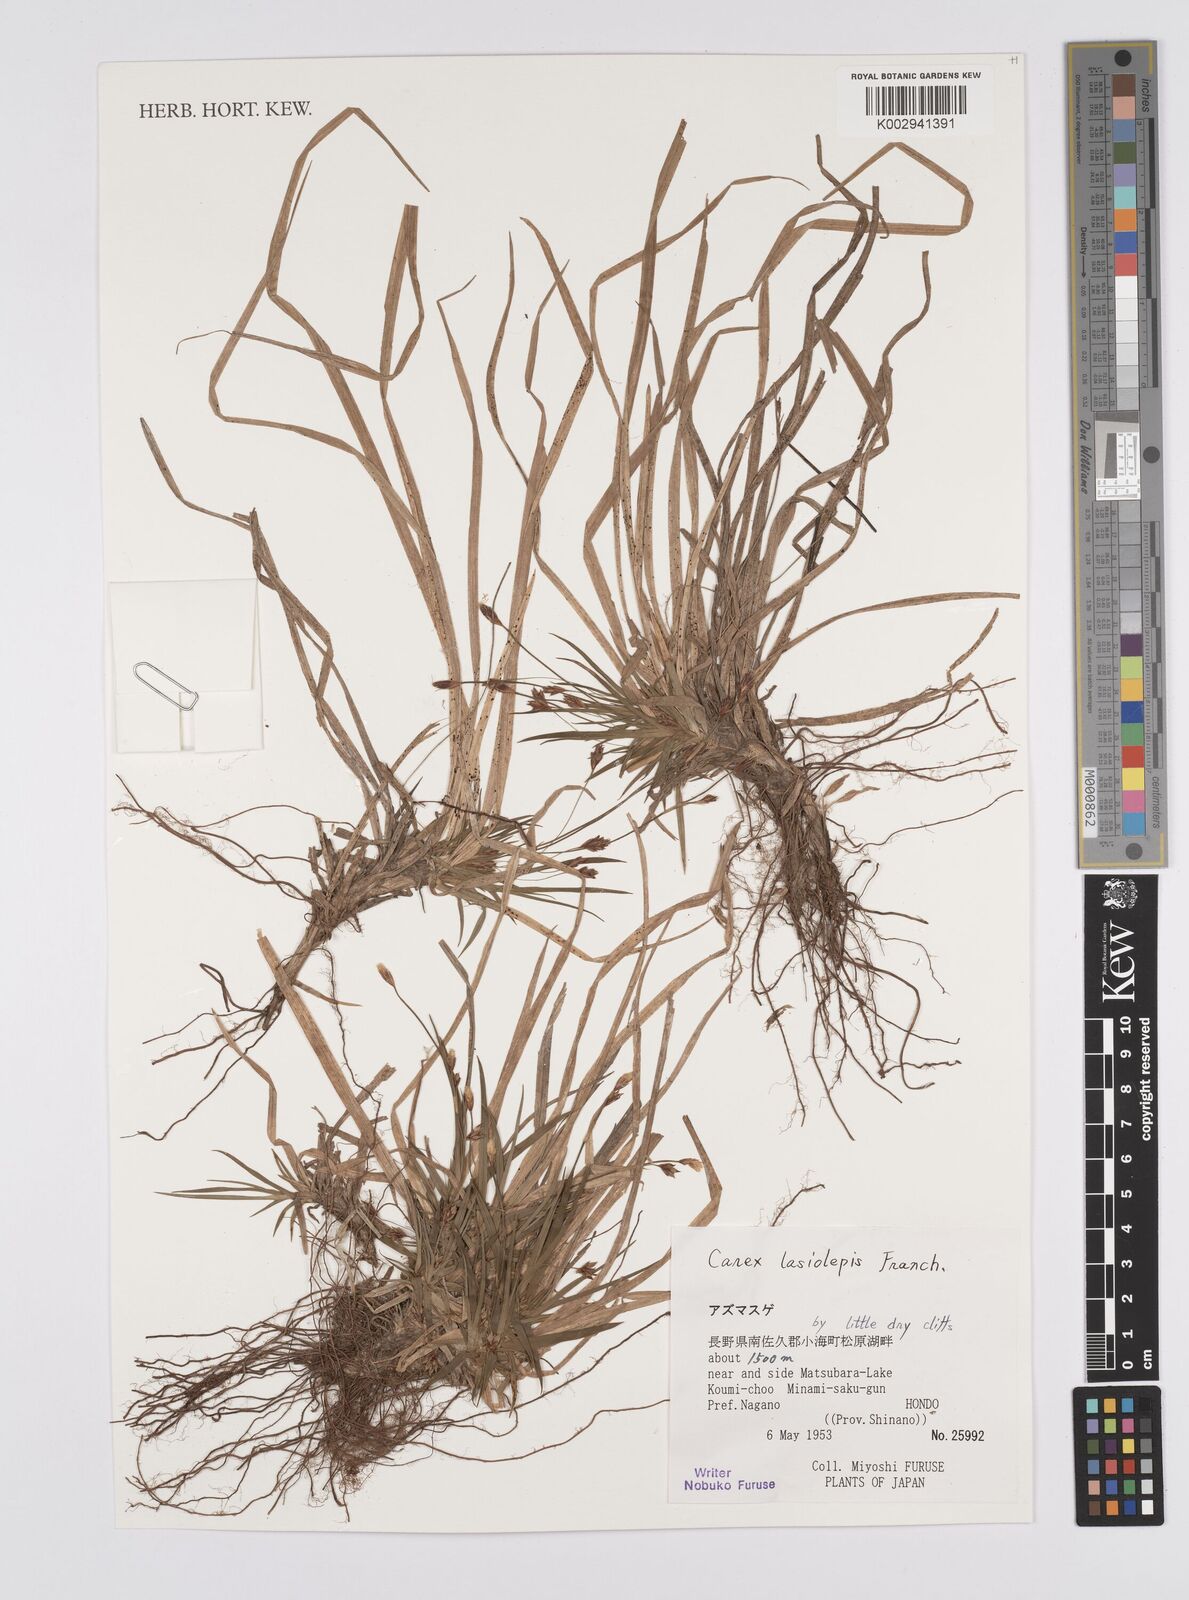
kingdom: Plantae
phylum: Tracheophyta
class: Liliopsida
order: Poales
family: Cyperaceae
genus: Carex
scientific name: Carex lasiolepis
